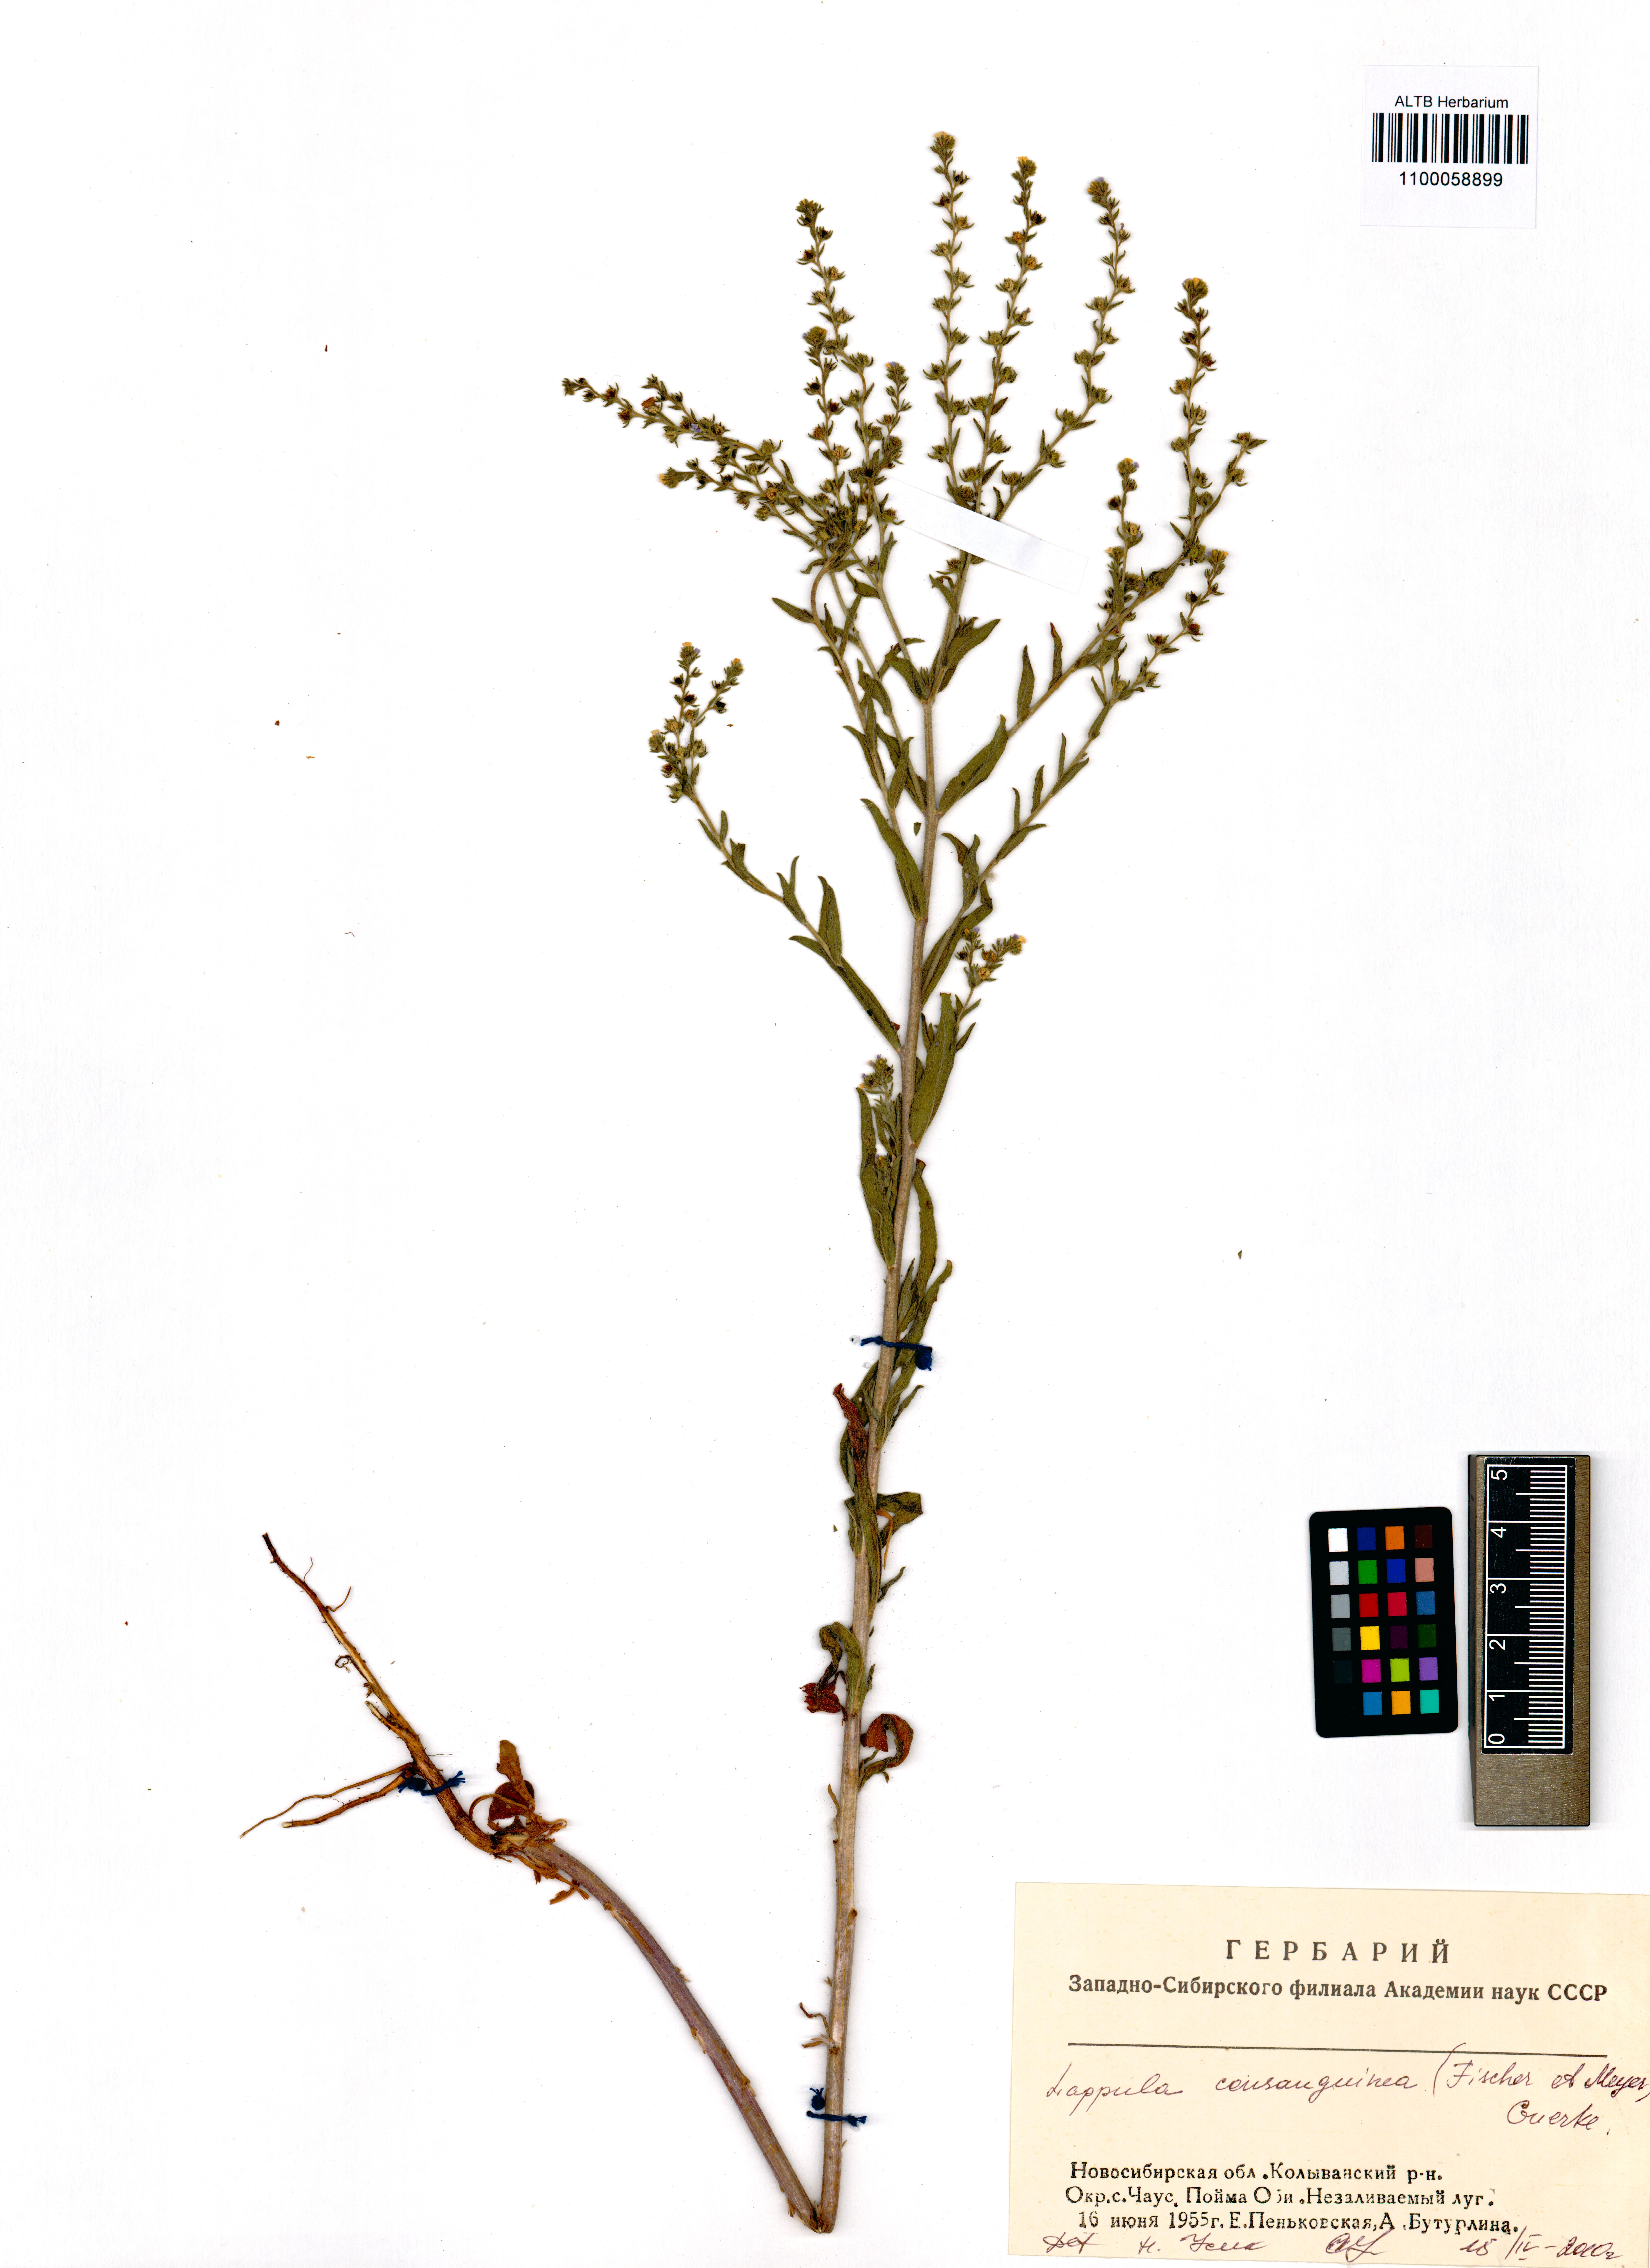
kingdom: Plantae
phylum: Tracheophyta
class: Magnoliopsida
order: Boraginales
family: Boraginaceae
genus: Lappula
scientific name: Lappula squarrosa
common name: European stickseed
